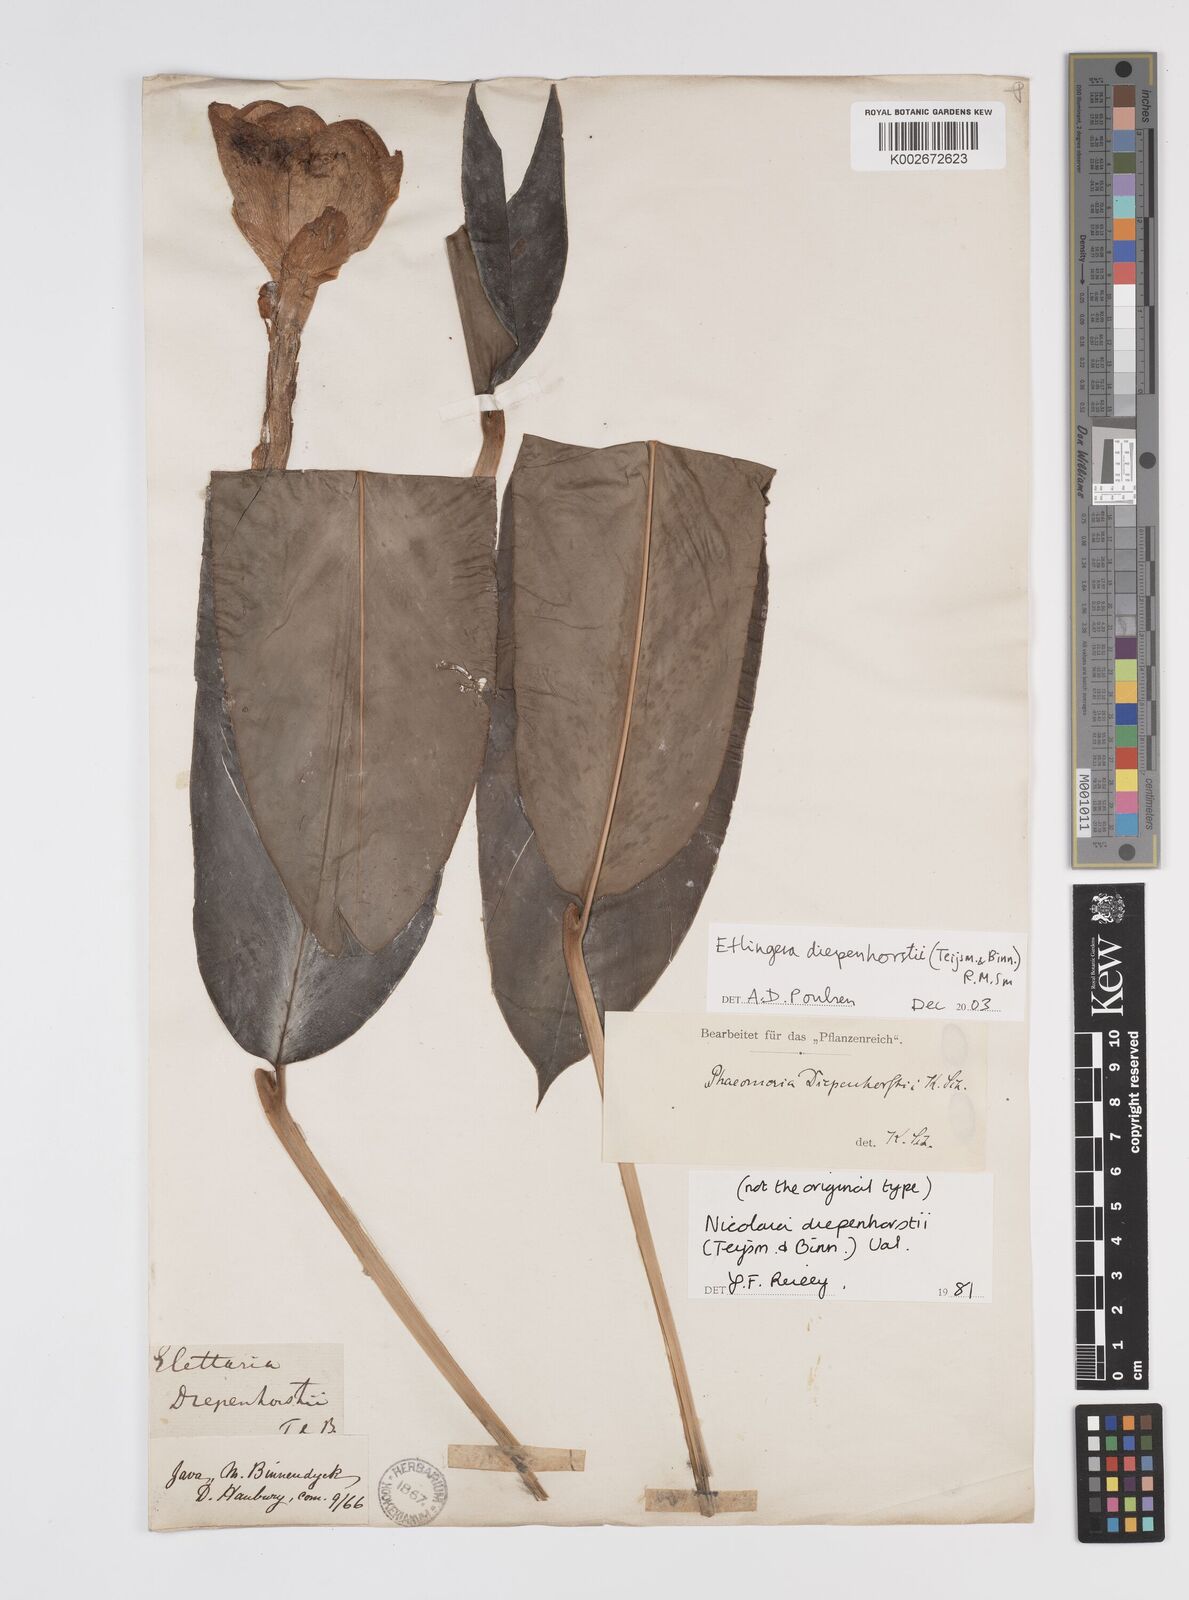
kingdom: Plantae
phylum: Tracheophyta
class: Liliopsida
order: Zingiberales
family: Zingiberaceae
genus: Etlingera
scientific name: Etlingera diepenhorstii
